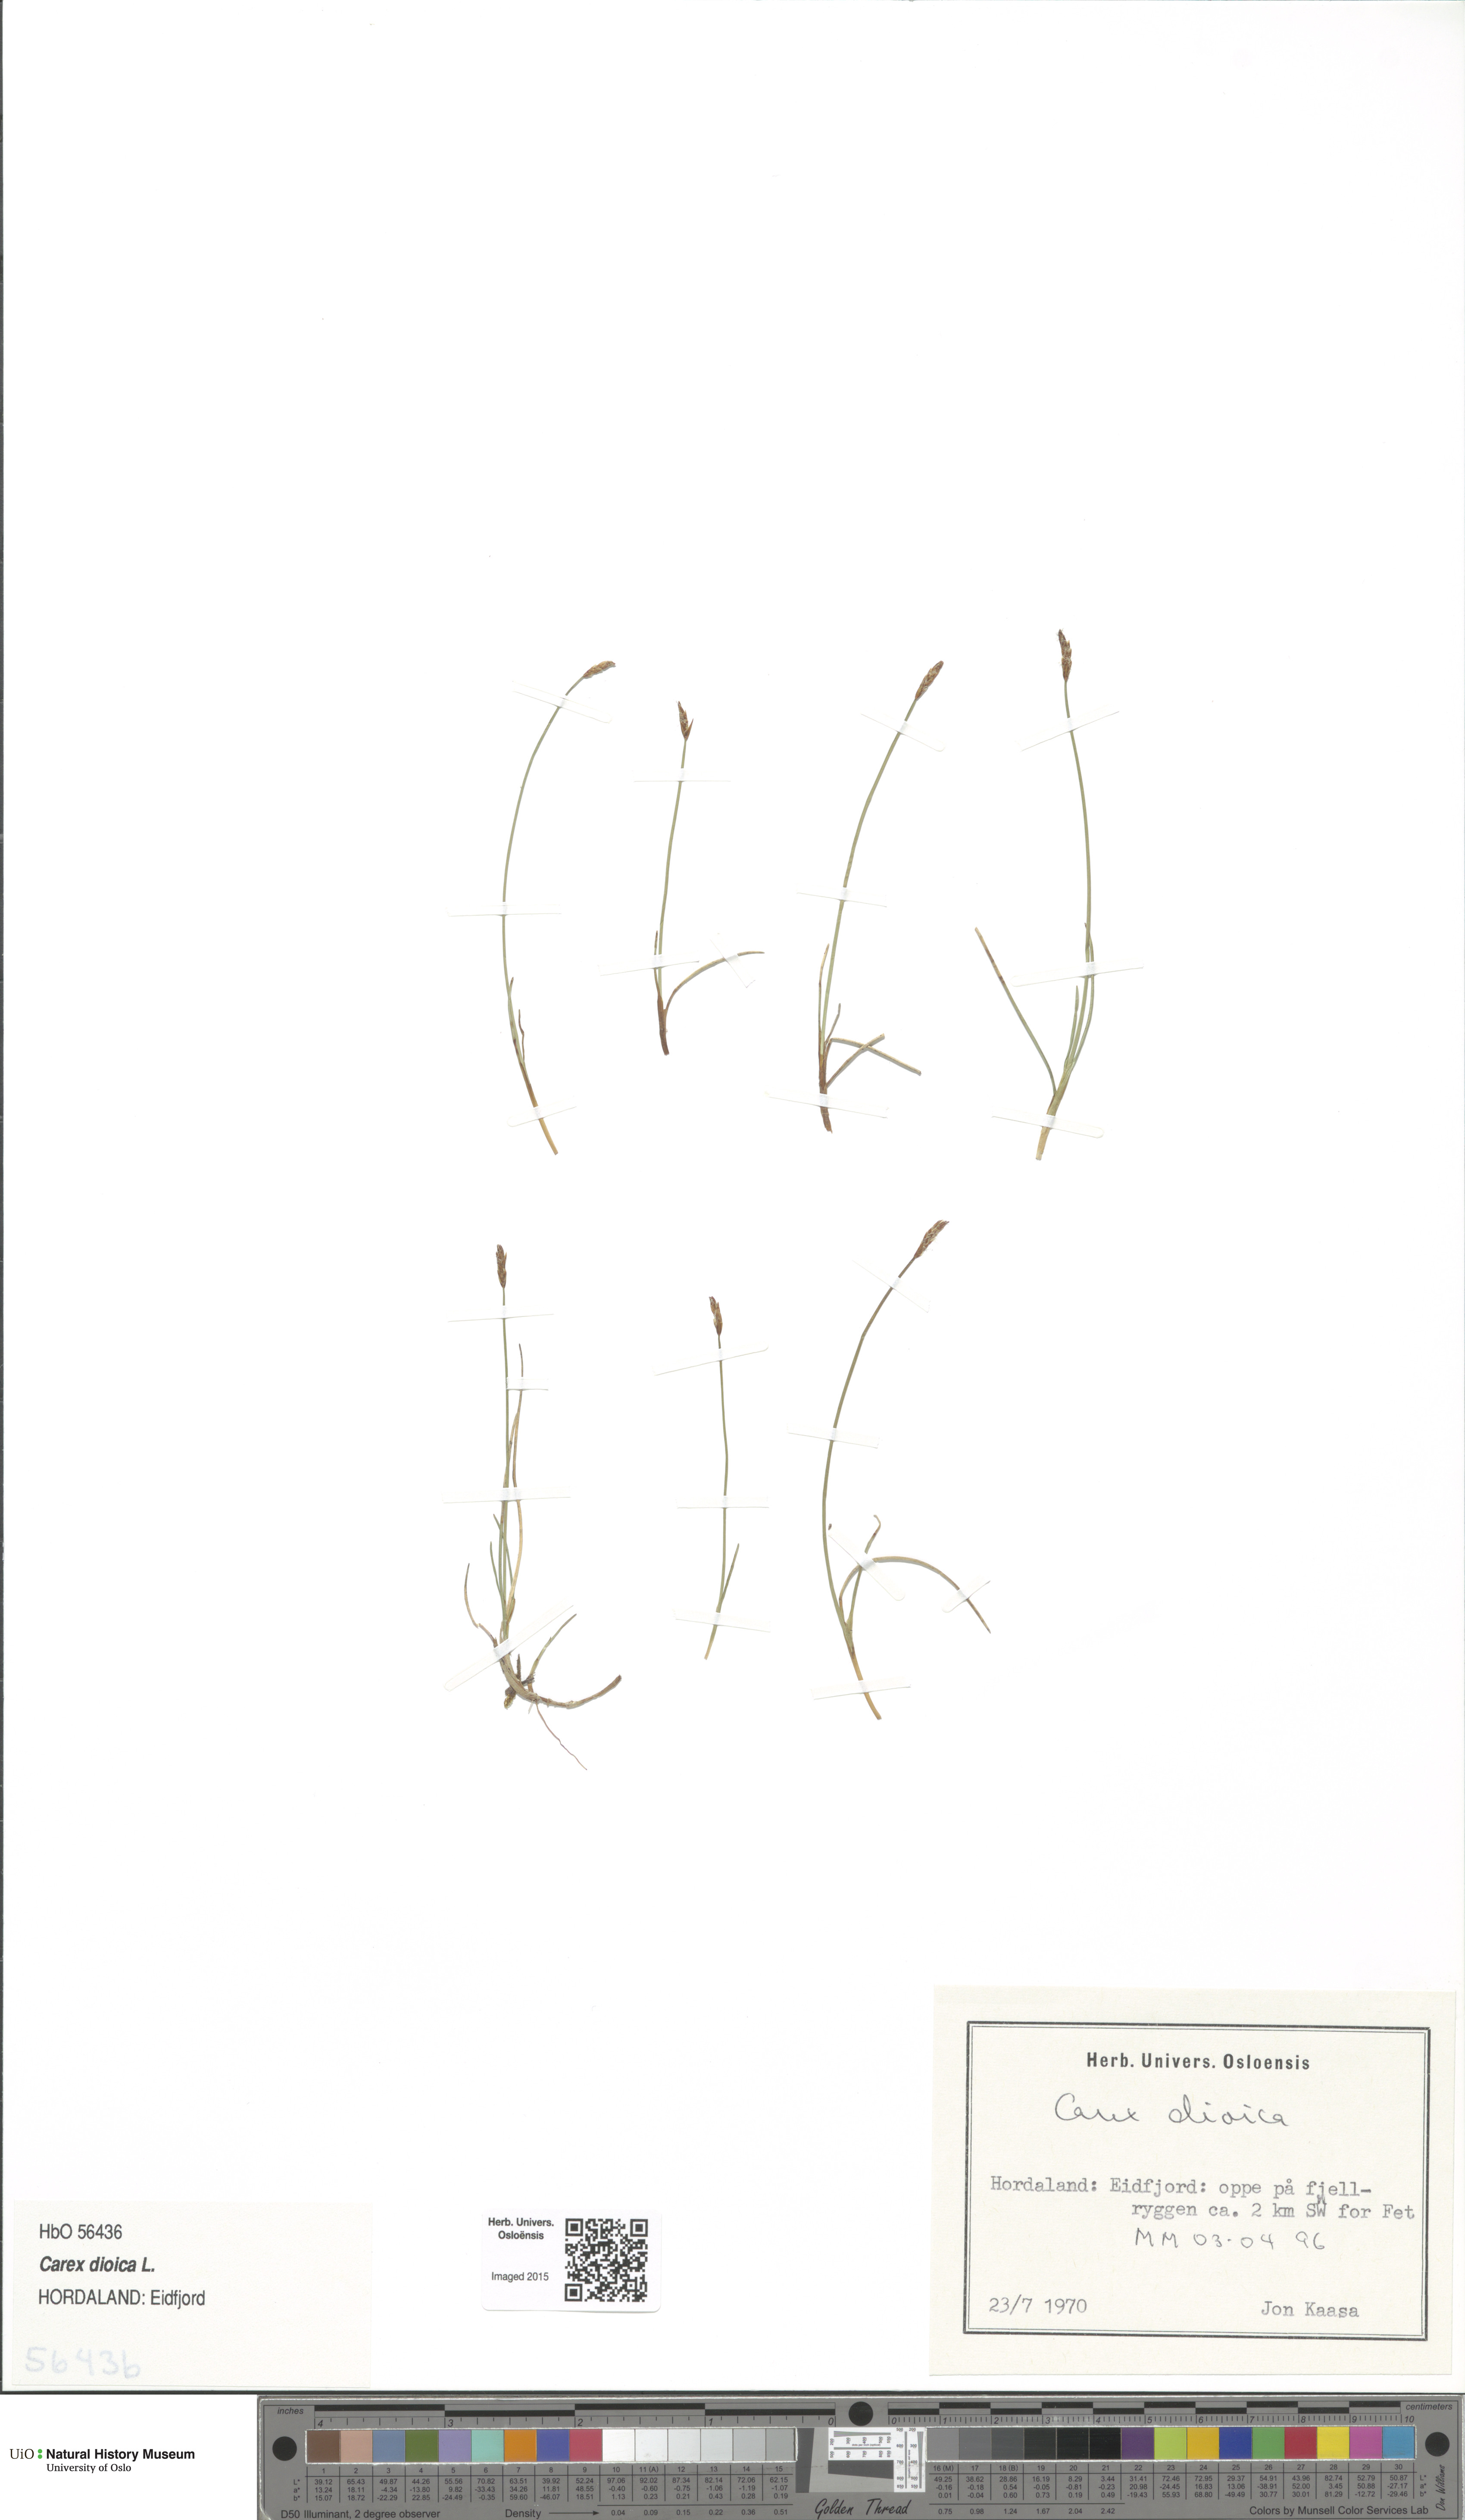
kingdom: Plantae
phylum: Tracheophyta
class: Liliopsida
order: Poales
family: Cyperaceae
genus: Carex
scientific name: Carex dioica
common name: Dioecious sedge
